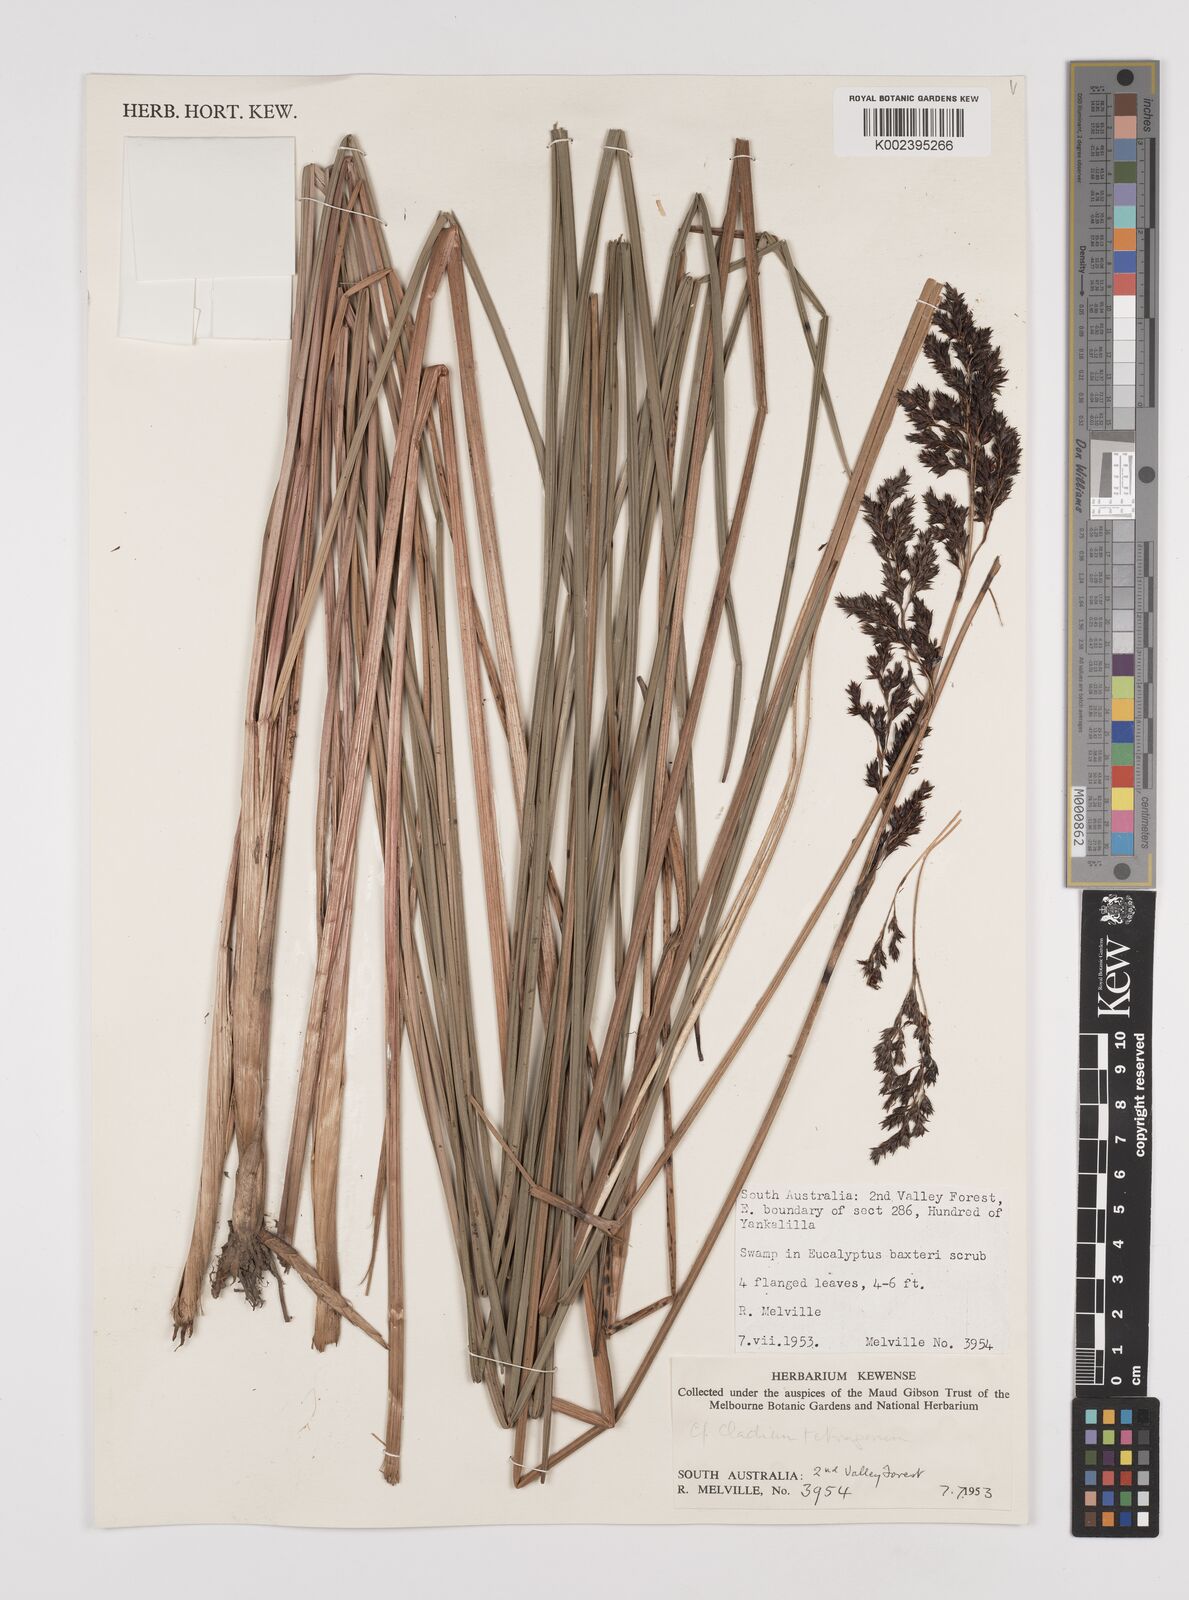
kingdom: Plantae
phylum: Tracheophyta
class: Liliopsida
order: Poales
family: Cyperaceae
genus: Machaerina
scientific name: Machaerina teretifolia
